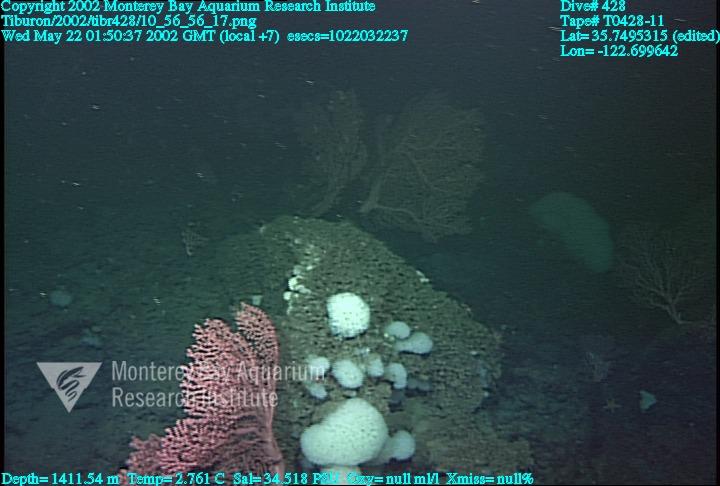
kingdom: Animalia
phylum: Porifera
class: Hexactinellida
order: Sceptrulophora
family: Farreidae
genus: Farrea
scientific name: Farrea occa
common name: Reversed glass sponge
